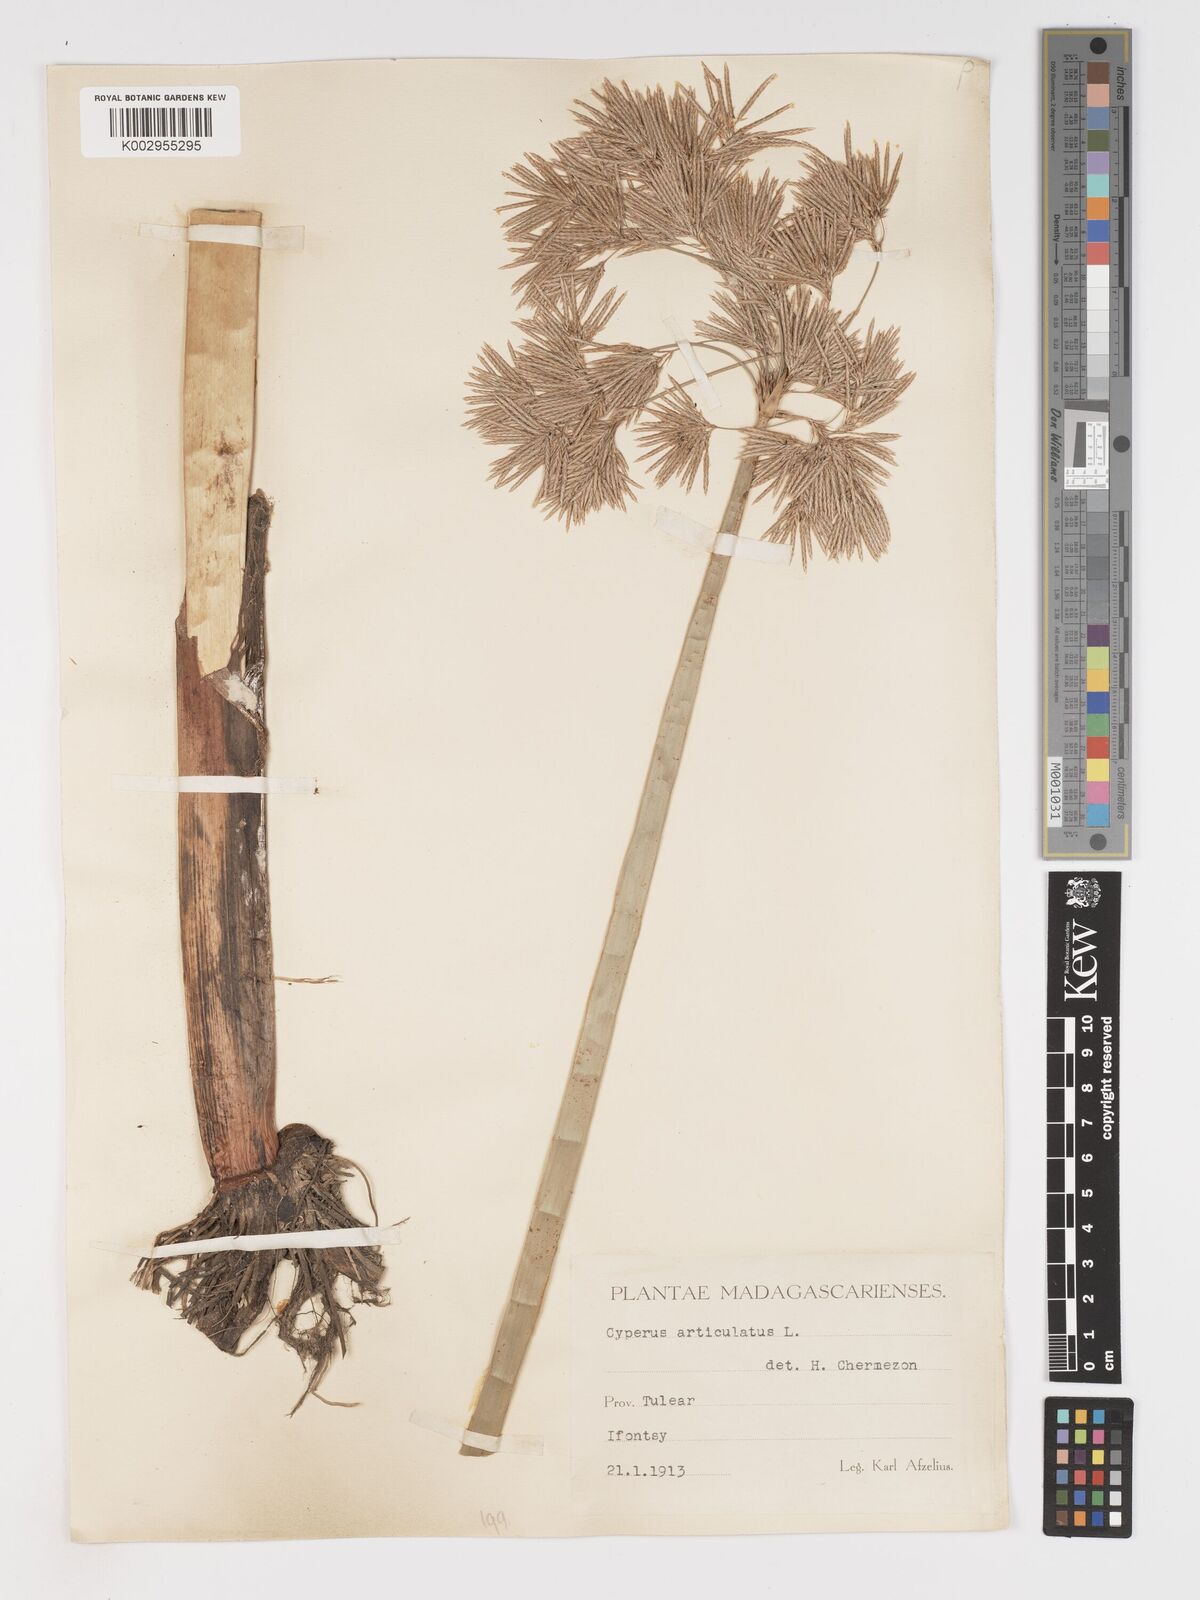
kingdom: Plantae
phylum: Tracheophyta
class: Liliopsida
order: Poales
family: Cyperaceae
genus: Cyperus
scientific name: Cyperus articulatus
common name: Jointed flatsedge
